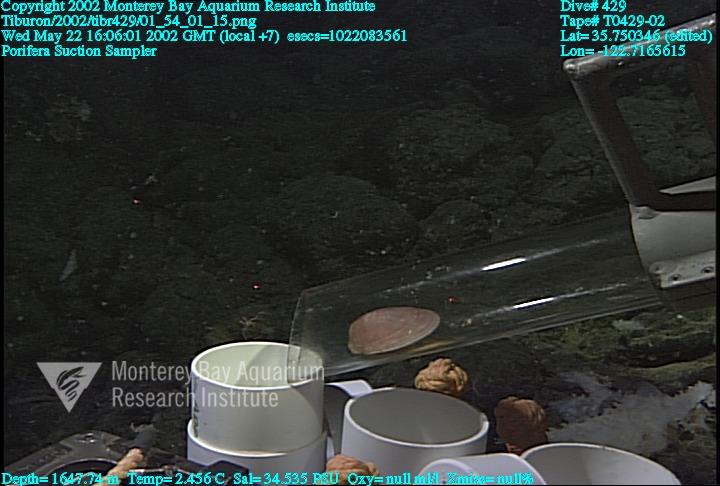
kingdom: Animalia
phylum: Porifera
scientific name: Porifera
